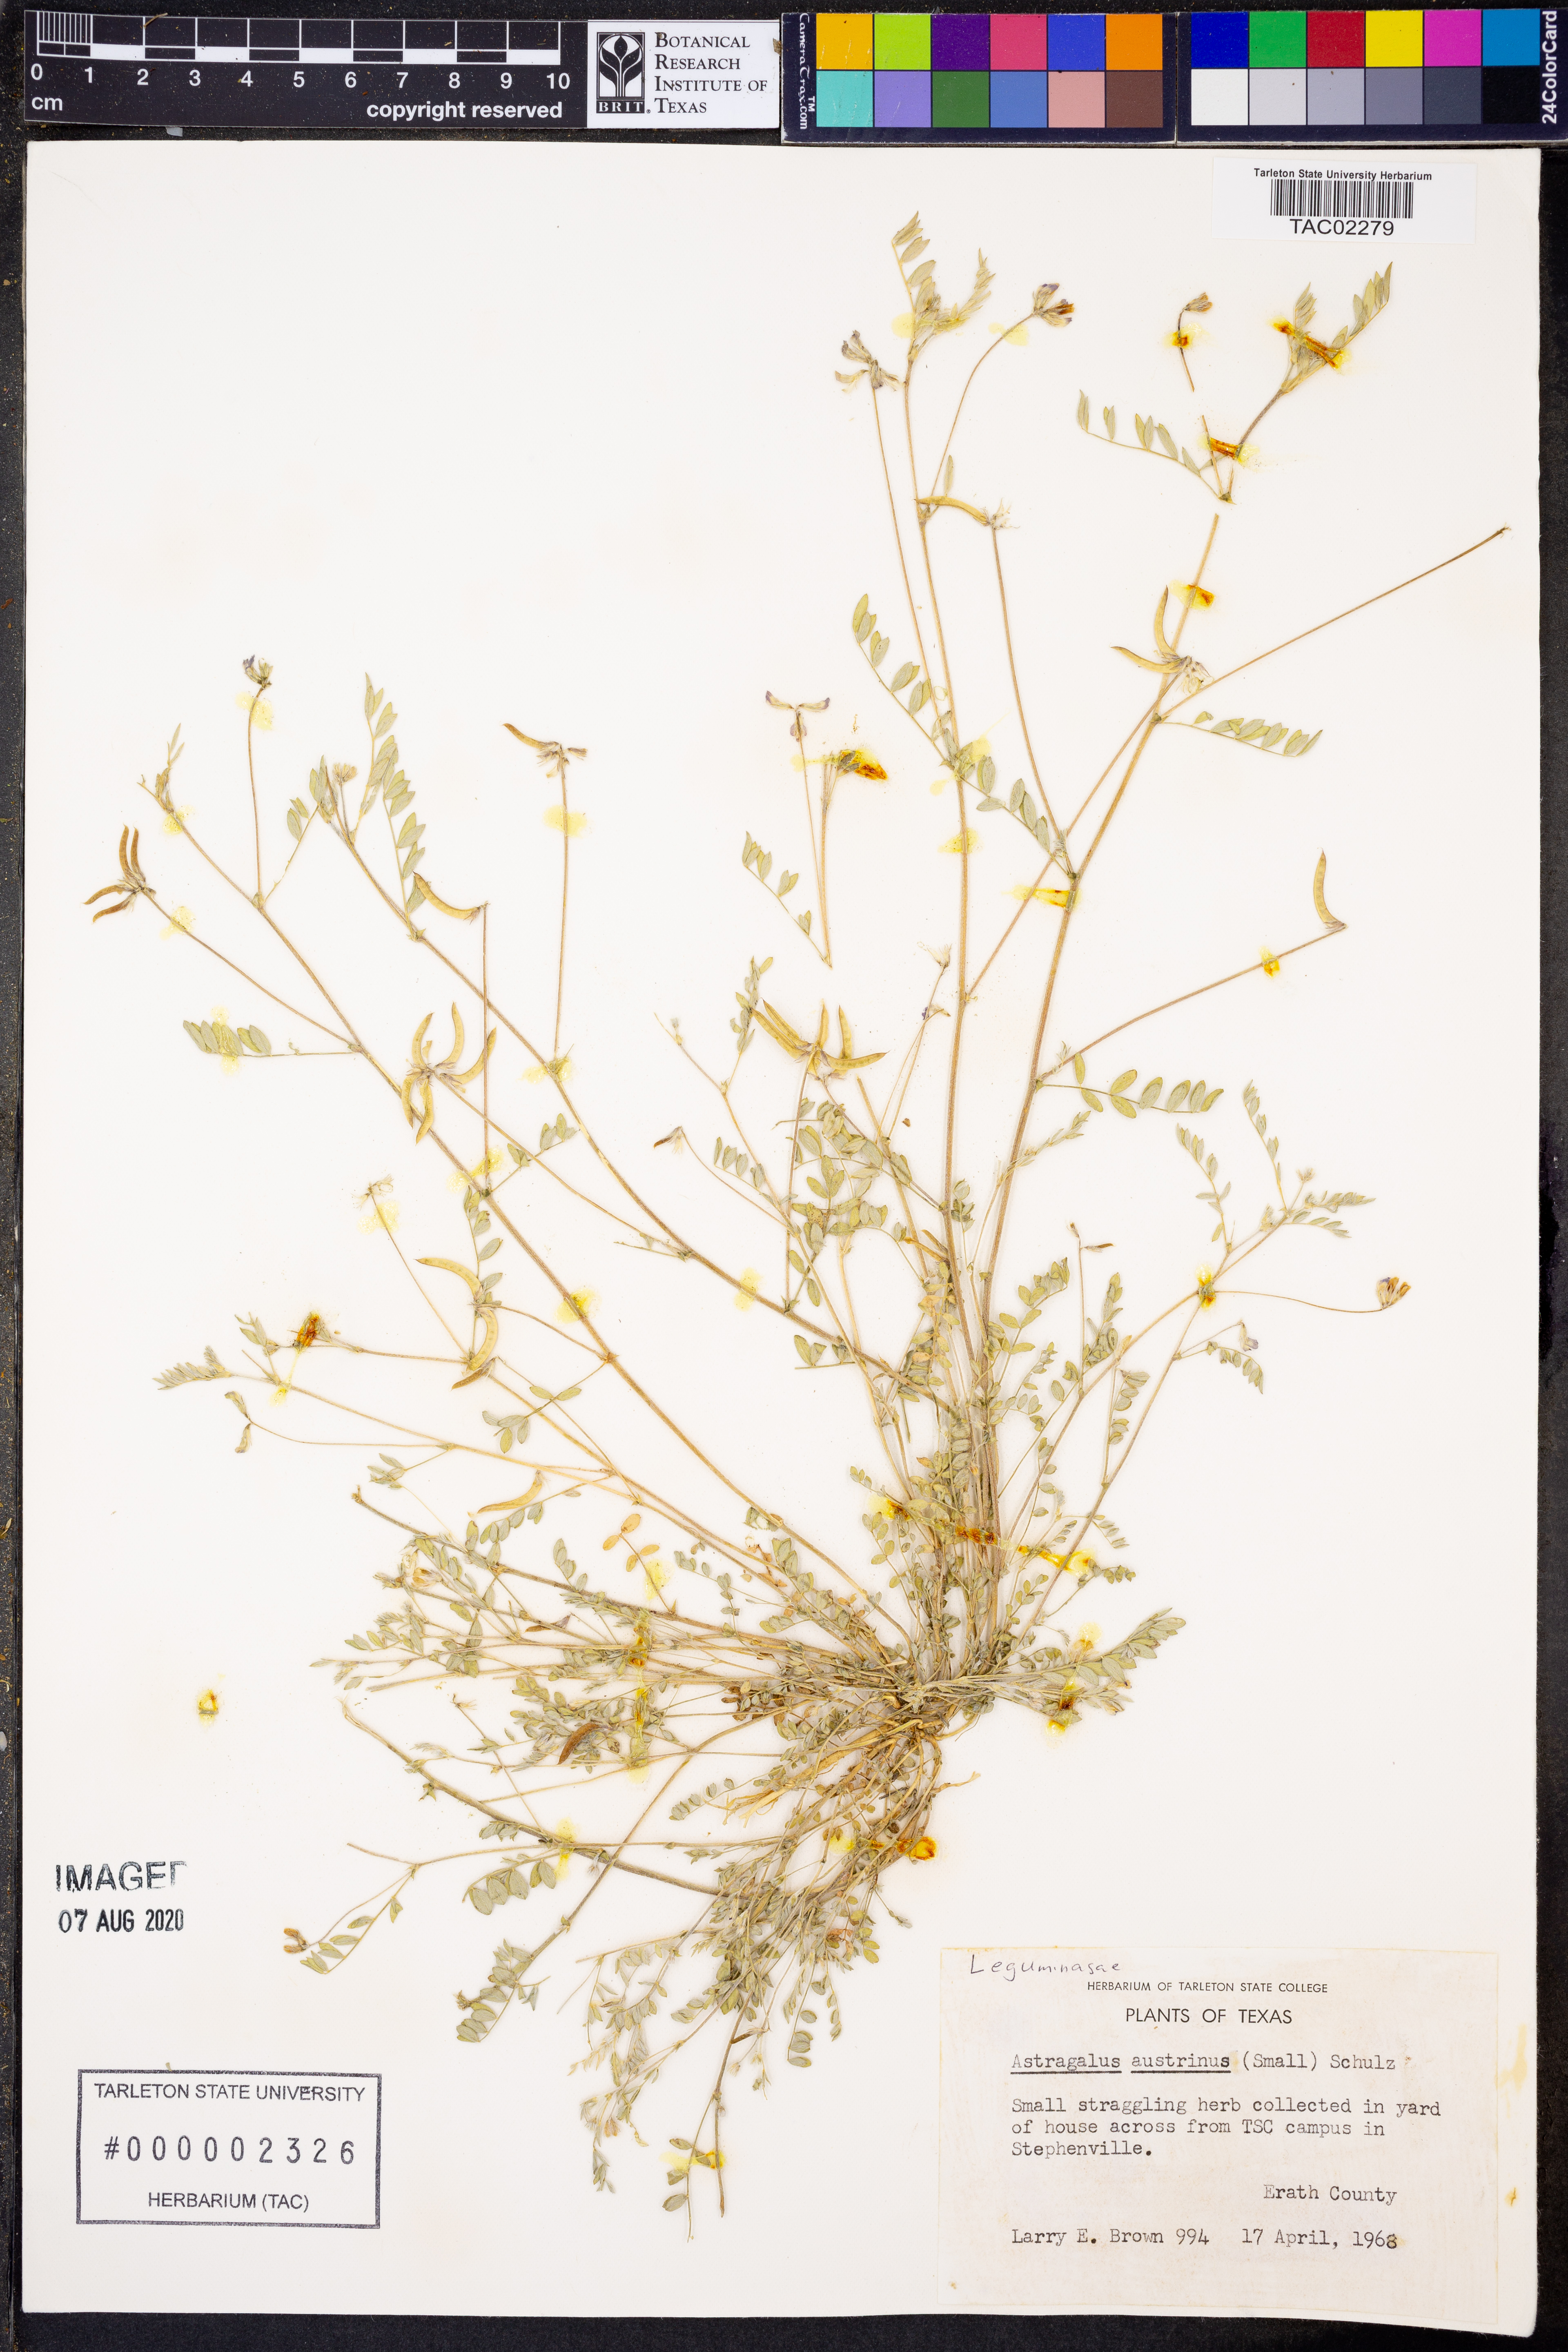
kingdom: Plantae
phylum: Tracheophyta
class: Magnoliopsida
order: Fabales
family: Fabaceae
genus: Astragalus
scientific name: Astragalus nuttallianus
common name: Smallflowered milkvetch
